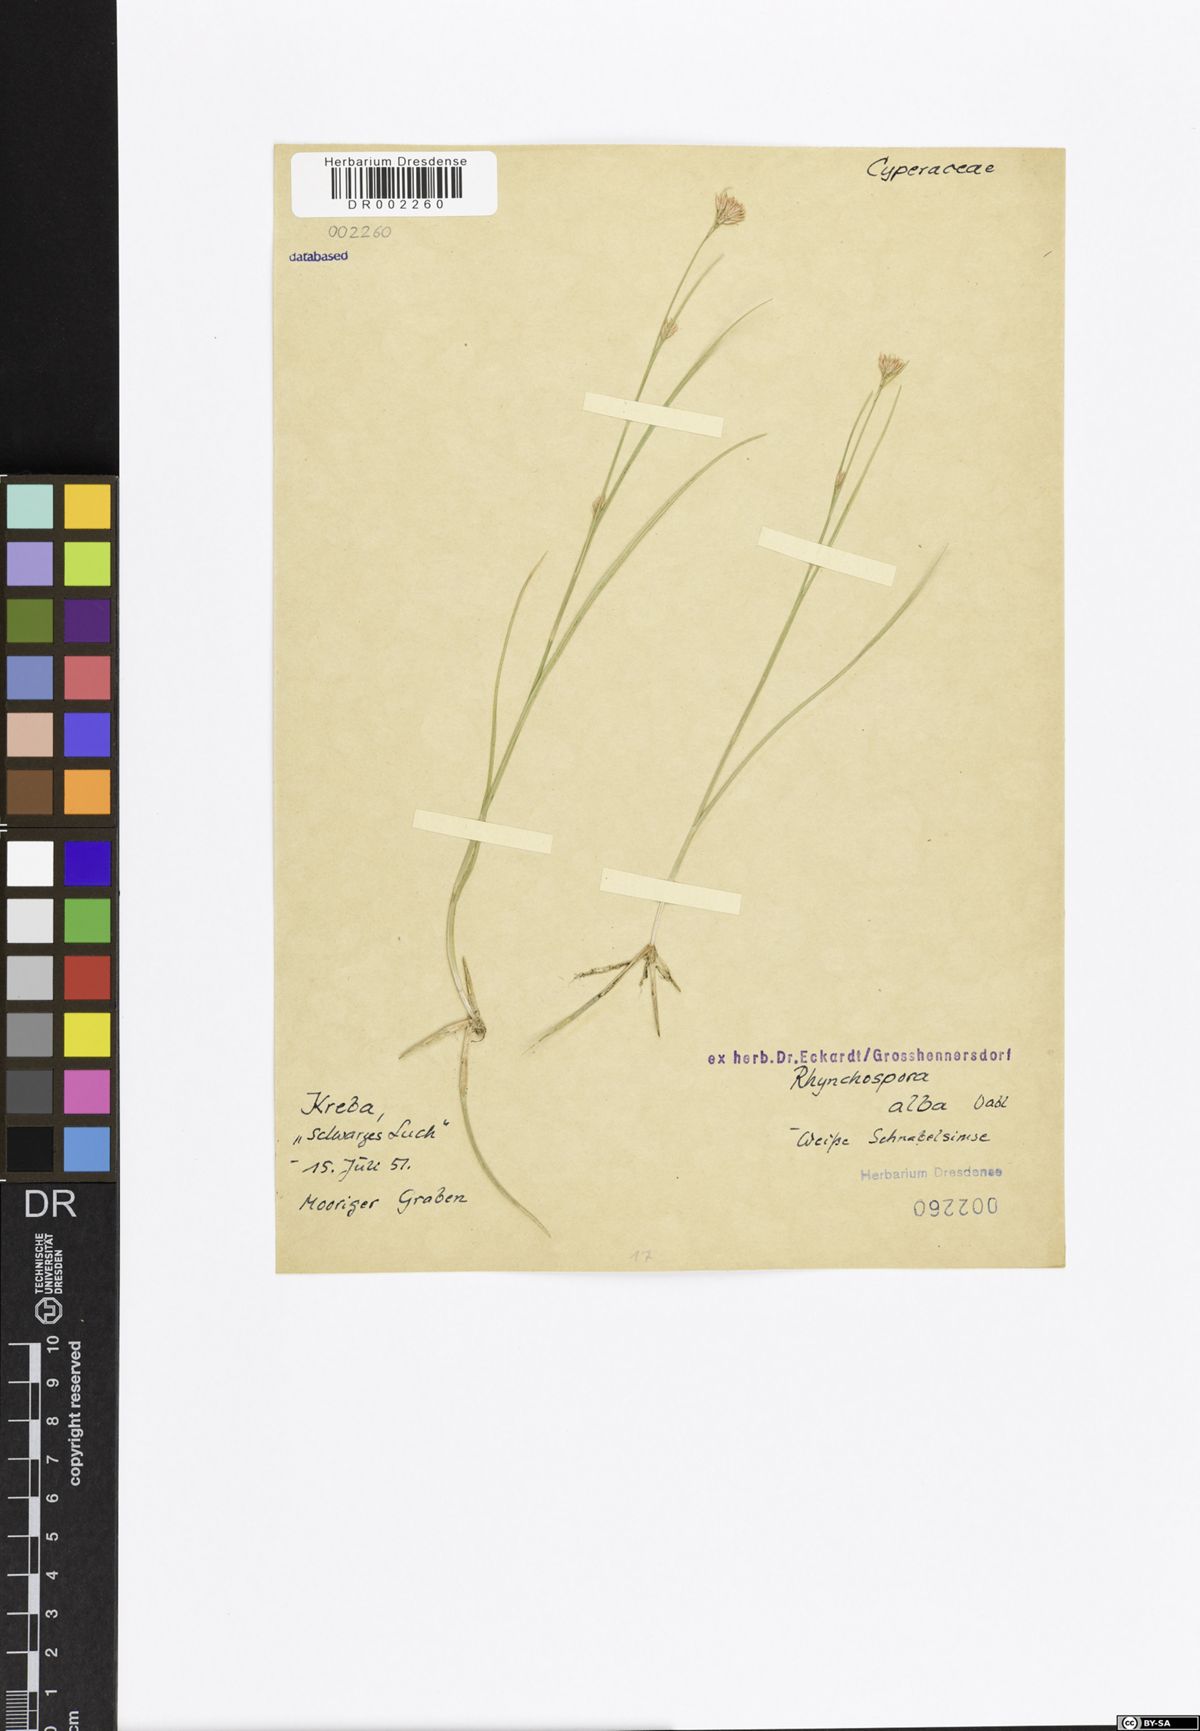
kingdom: Plantae
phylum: Tracheophyta
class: Liliopsida
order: Poales
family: Cyperaceae
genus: Rhynchospora
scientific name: Rhynchospora alba
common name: White beak-sedge
